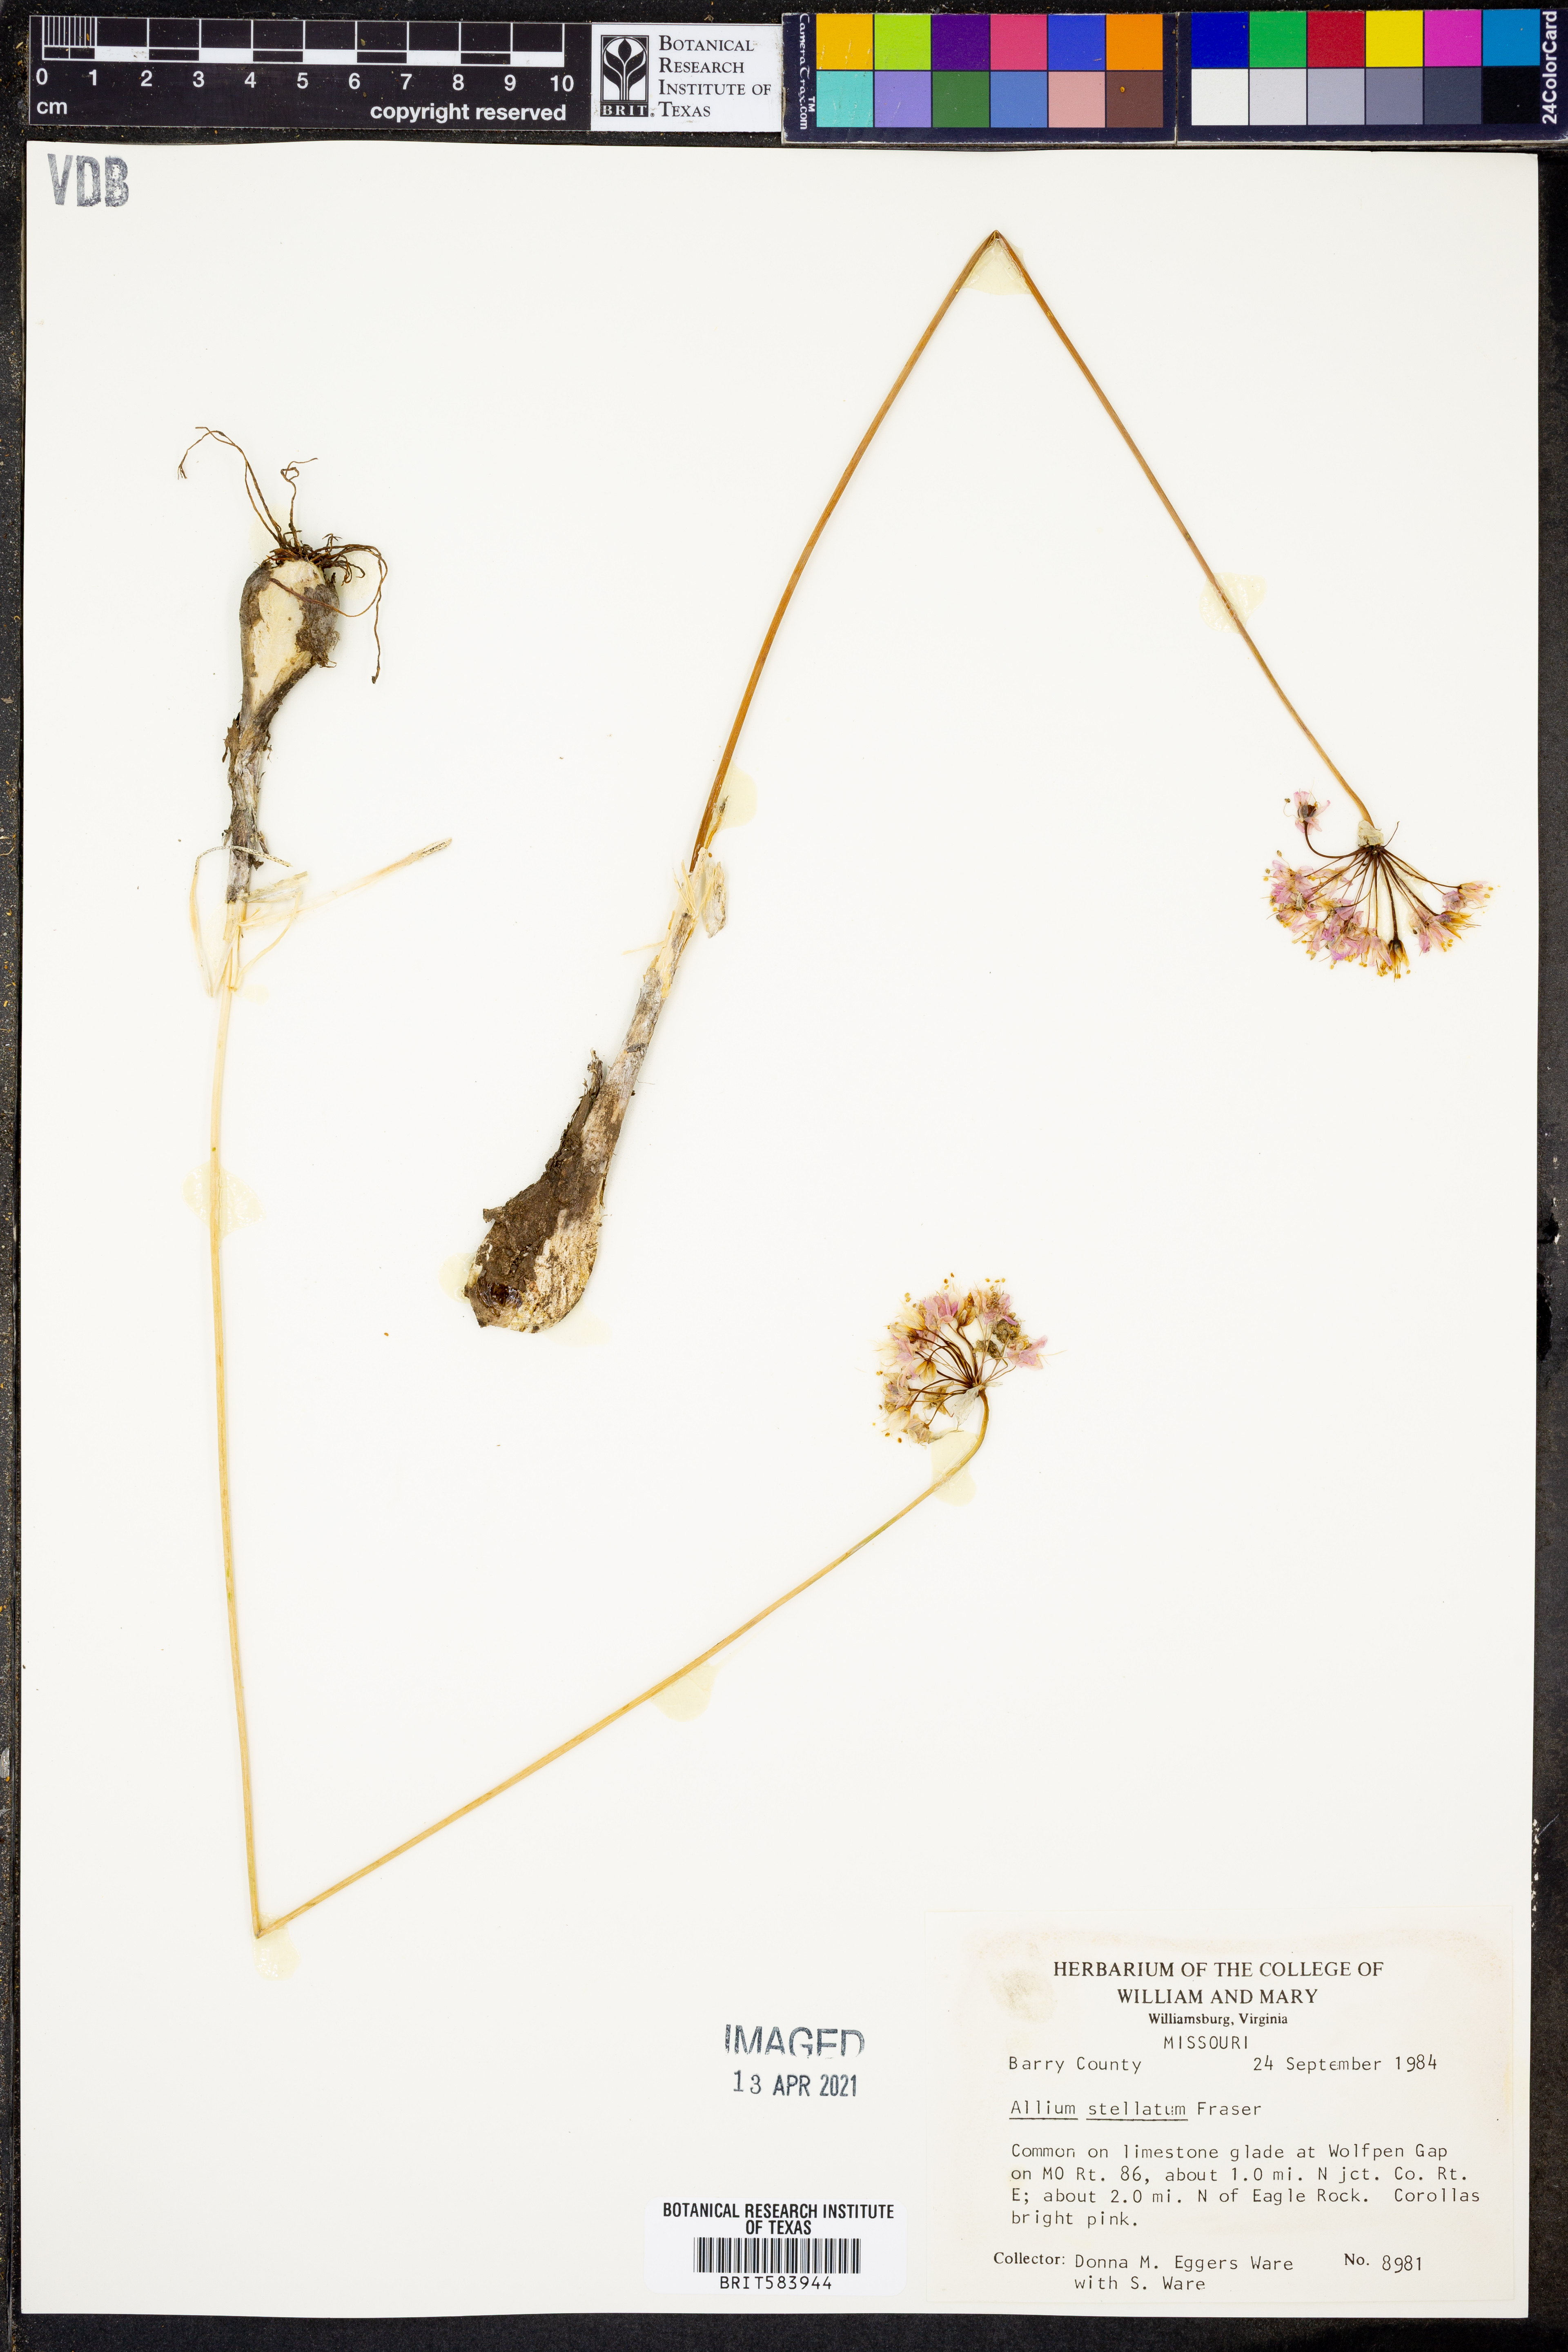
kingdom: Plantae
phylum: Tracheophyta
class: Liliopsida
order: Asparagales
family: Amaryllidaceae
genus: Allium
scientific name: Allium stellatum
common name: Autumn onion
